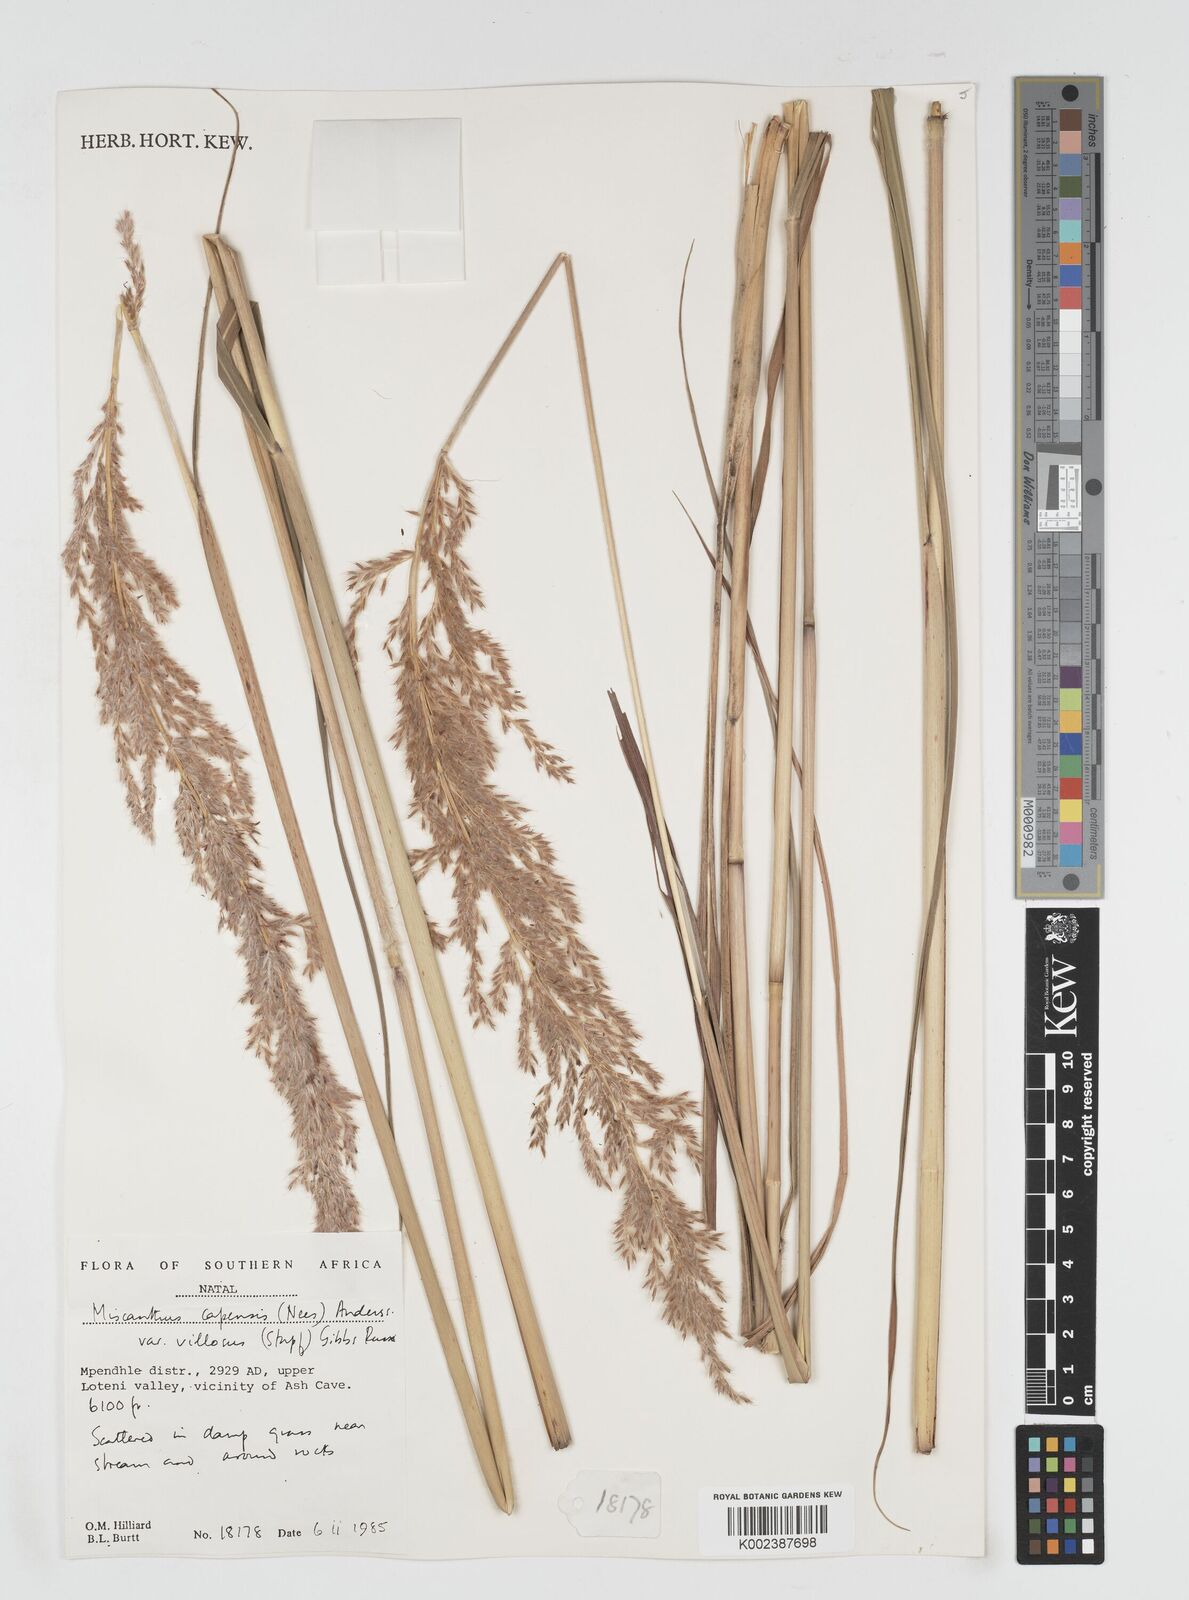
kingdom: Plantae
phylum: Tracheophyta
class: Liliopsida
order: Poales
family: Poaceae
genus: Miscanthus
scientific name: Miscanthus ecklonii
